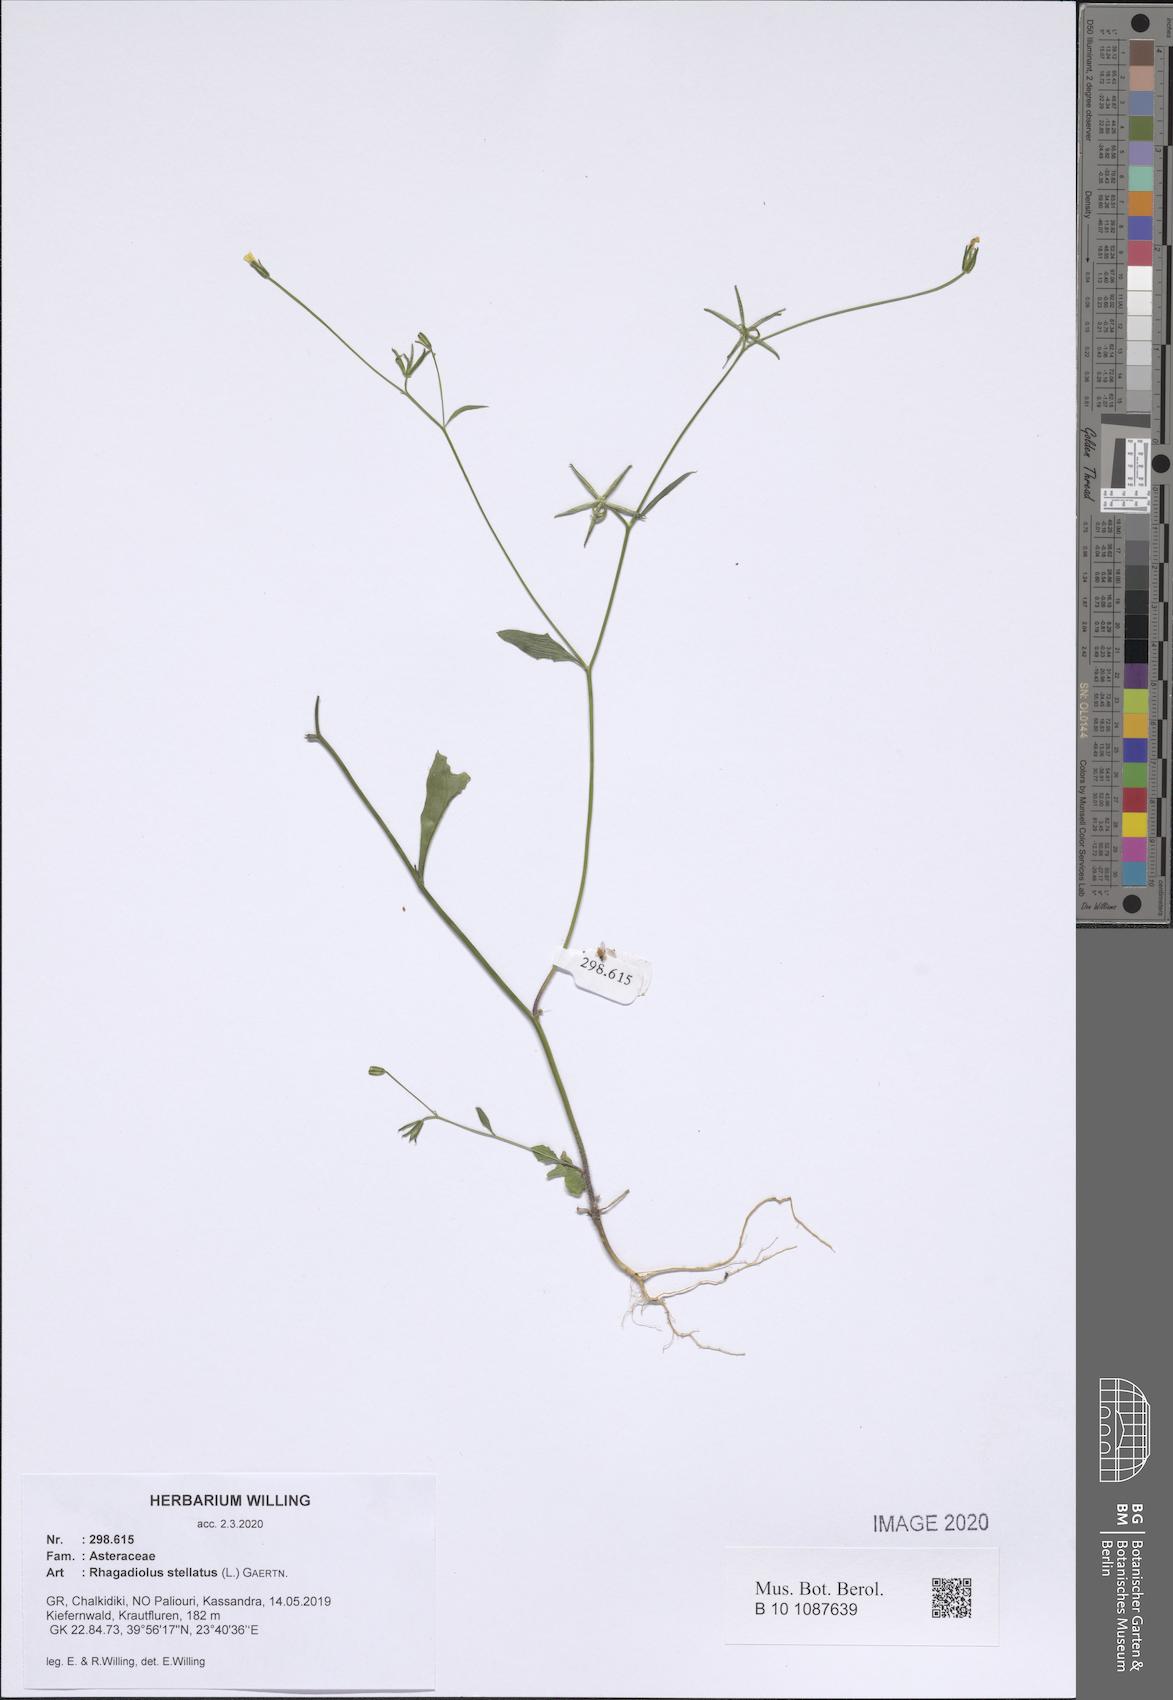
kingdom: Plantae
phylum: Tracheophyta
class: Magnoliopsida
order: Asterales
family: Asteraceae
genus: Rhagadiolus
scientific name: Rhagadiolus stellatus
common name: Star hawkbit
